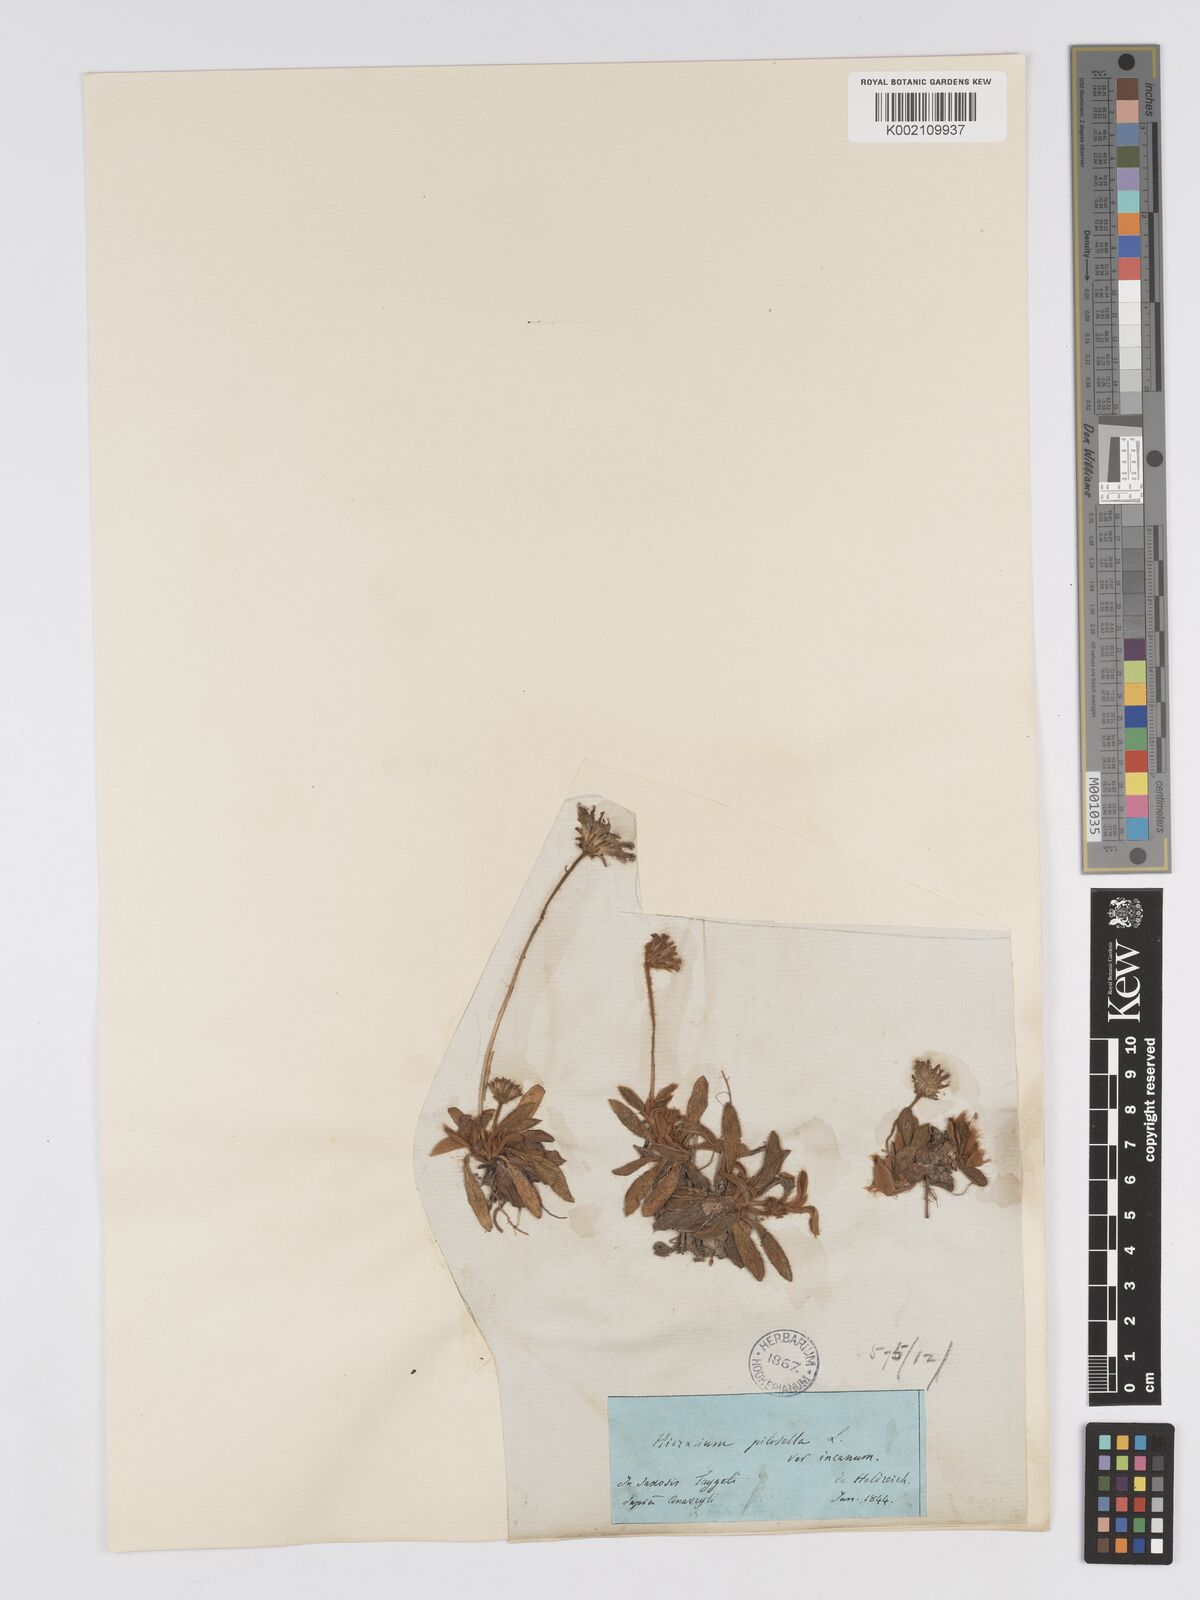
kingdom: Plantae
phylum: Tracheophyta
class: Magnoliopsida
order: Asterales
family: Asteraceae
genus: Pilosella
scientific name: Pilosella hoppeana
